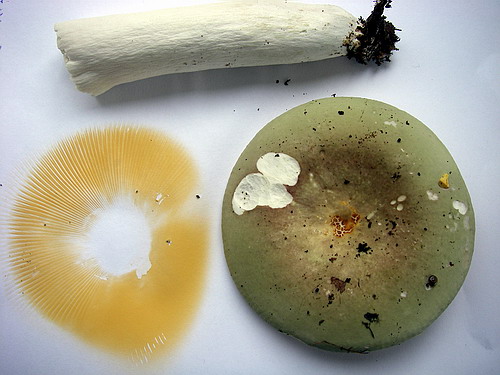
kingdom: Fungi
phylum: Basidiomycota
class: Agaricomycetes
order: Russulales
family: Russulaceae
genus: Russula
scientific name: Russula olivacea
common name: stor skørhat
